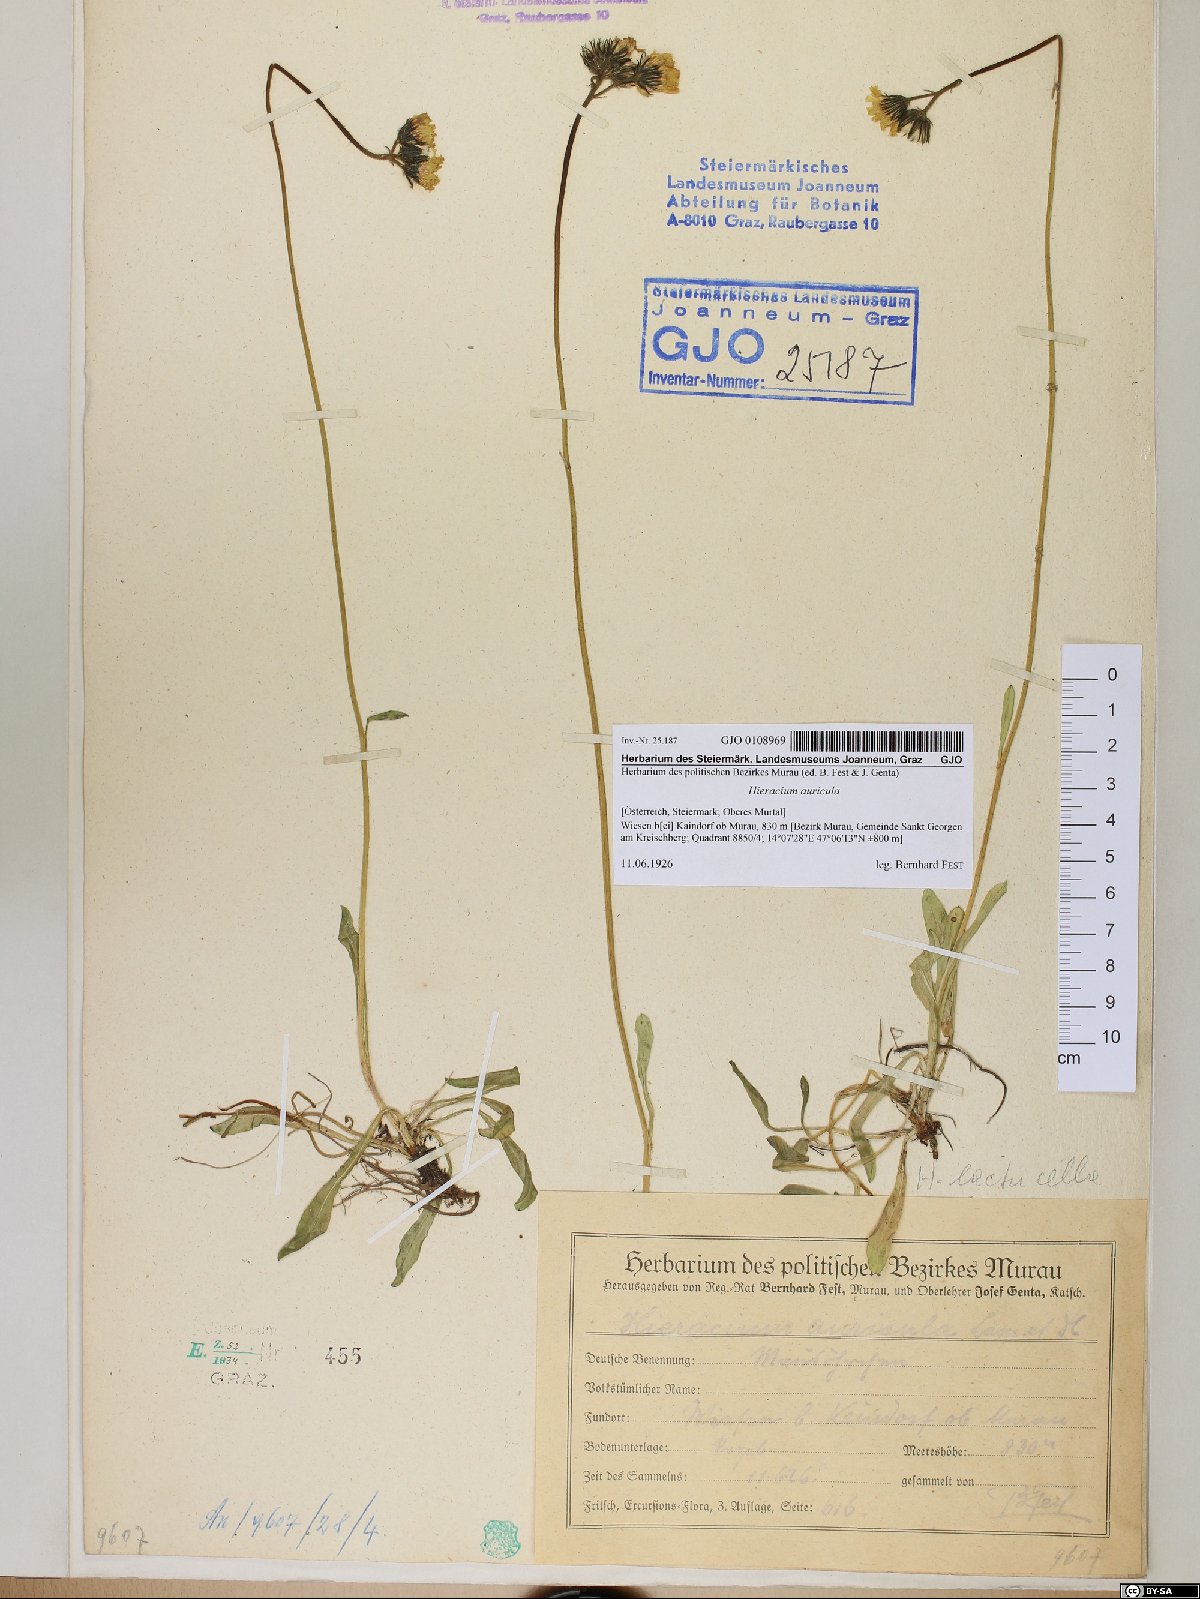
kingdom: Plantae
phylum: Tracheophyta
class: Magnoliopsida
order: Asterales
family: Asteraceae
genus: Hieracium
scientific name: Hieracium auricula
